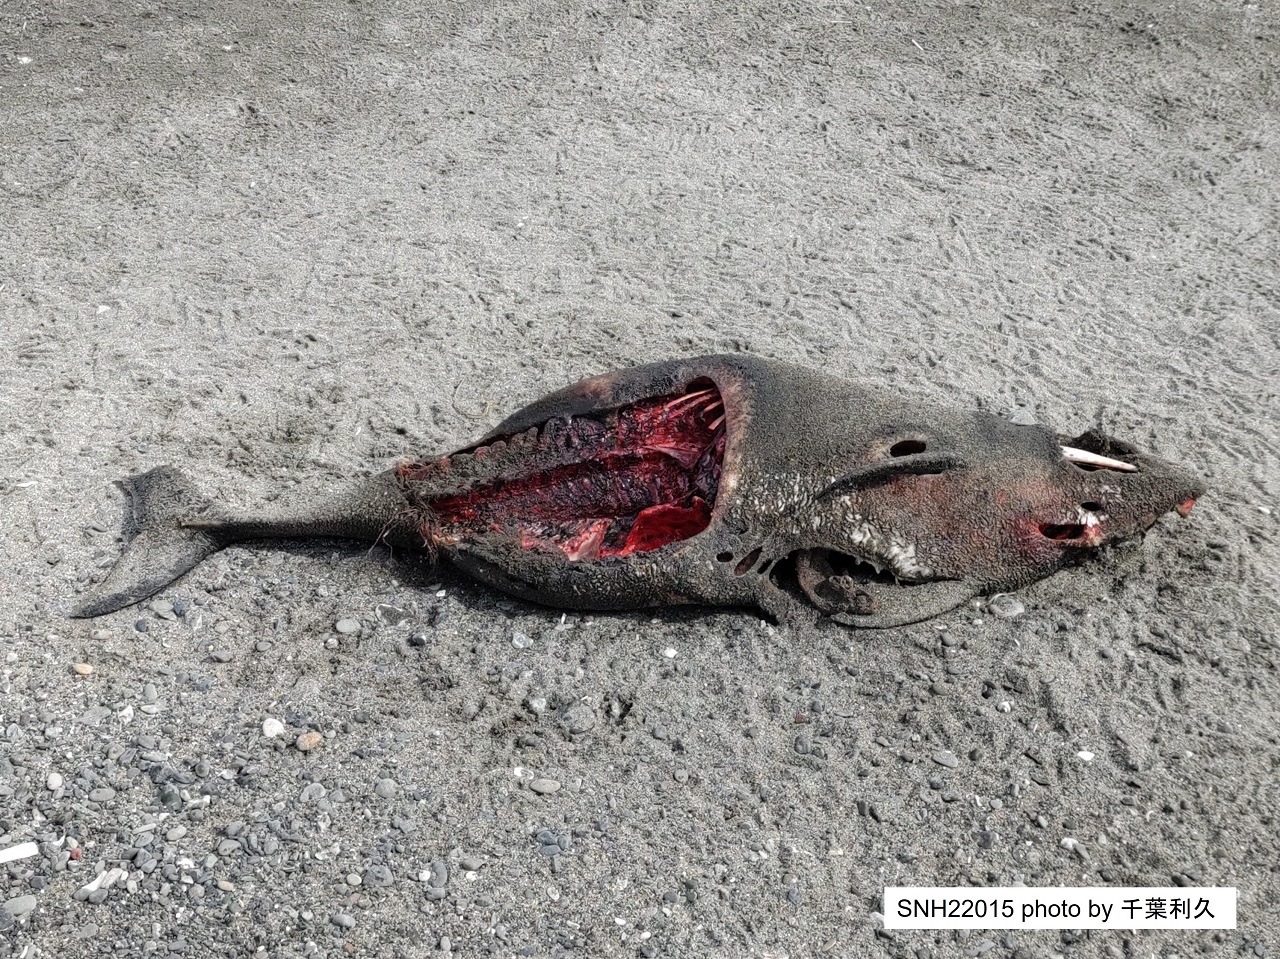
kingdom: Animalia
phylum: Chordata
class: Mammalia
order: Cetacea
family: Phocoenidae
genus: Phocoena
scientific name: Phocoena phocoena
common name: Harbour porpoise
